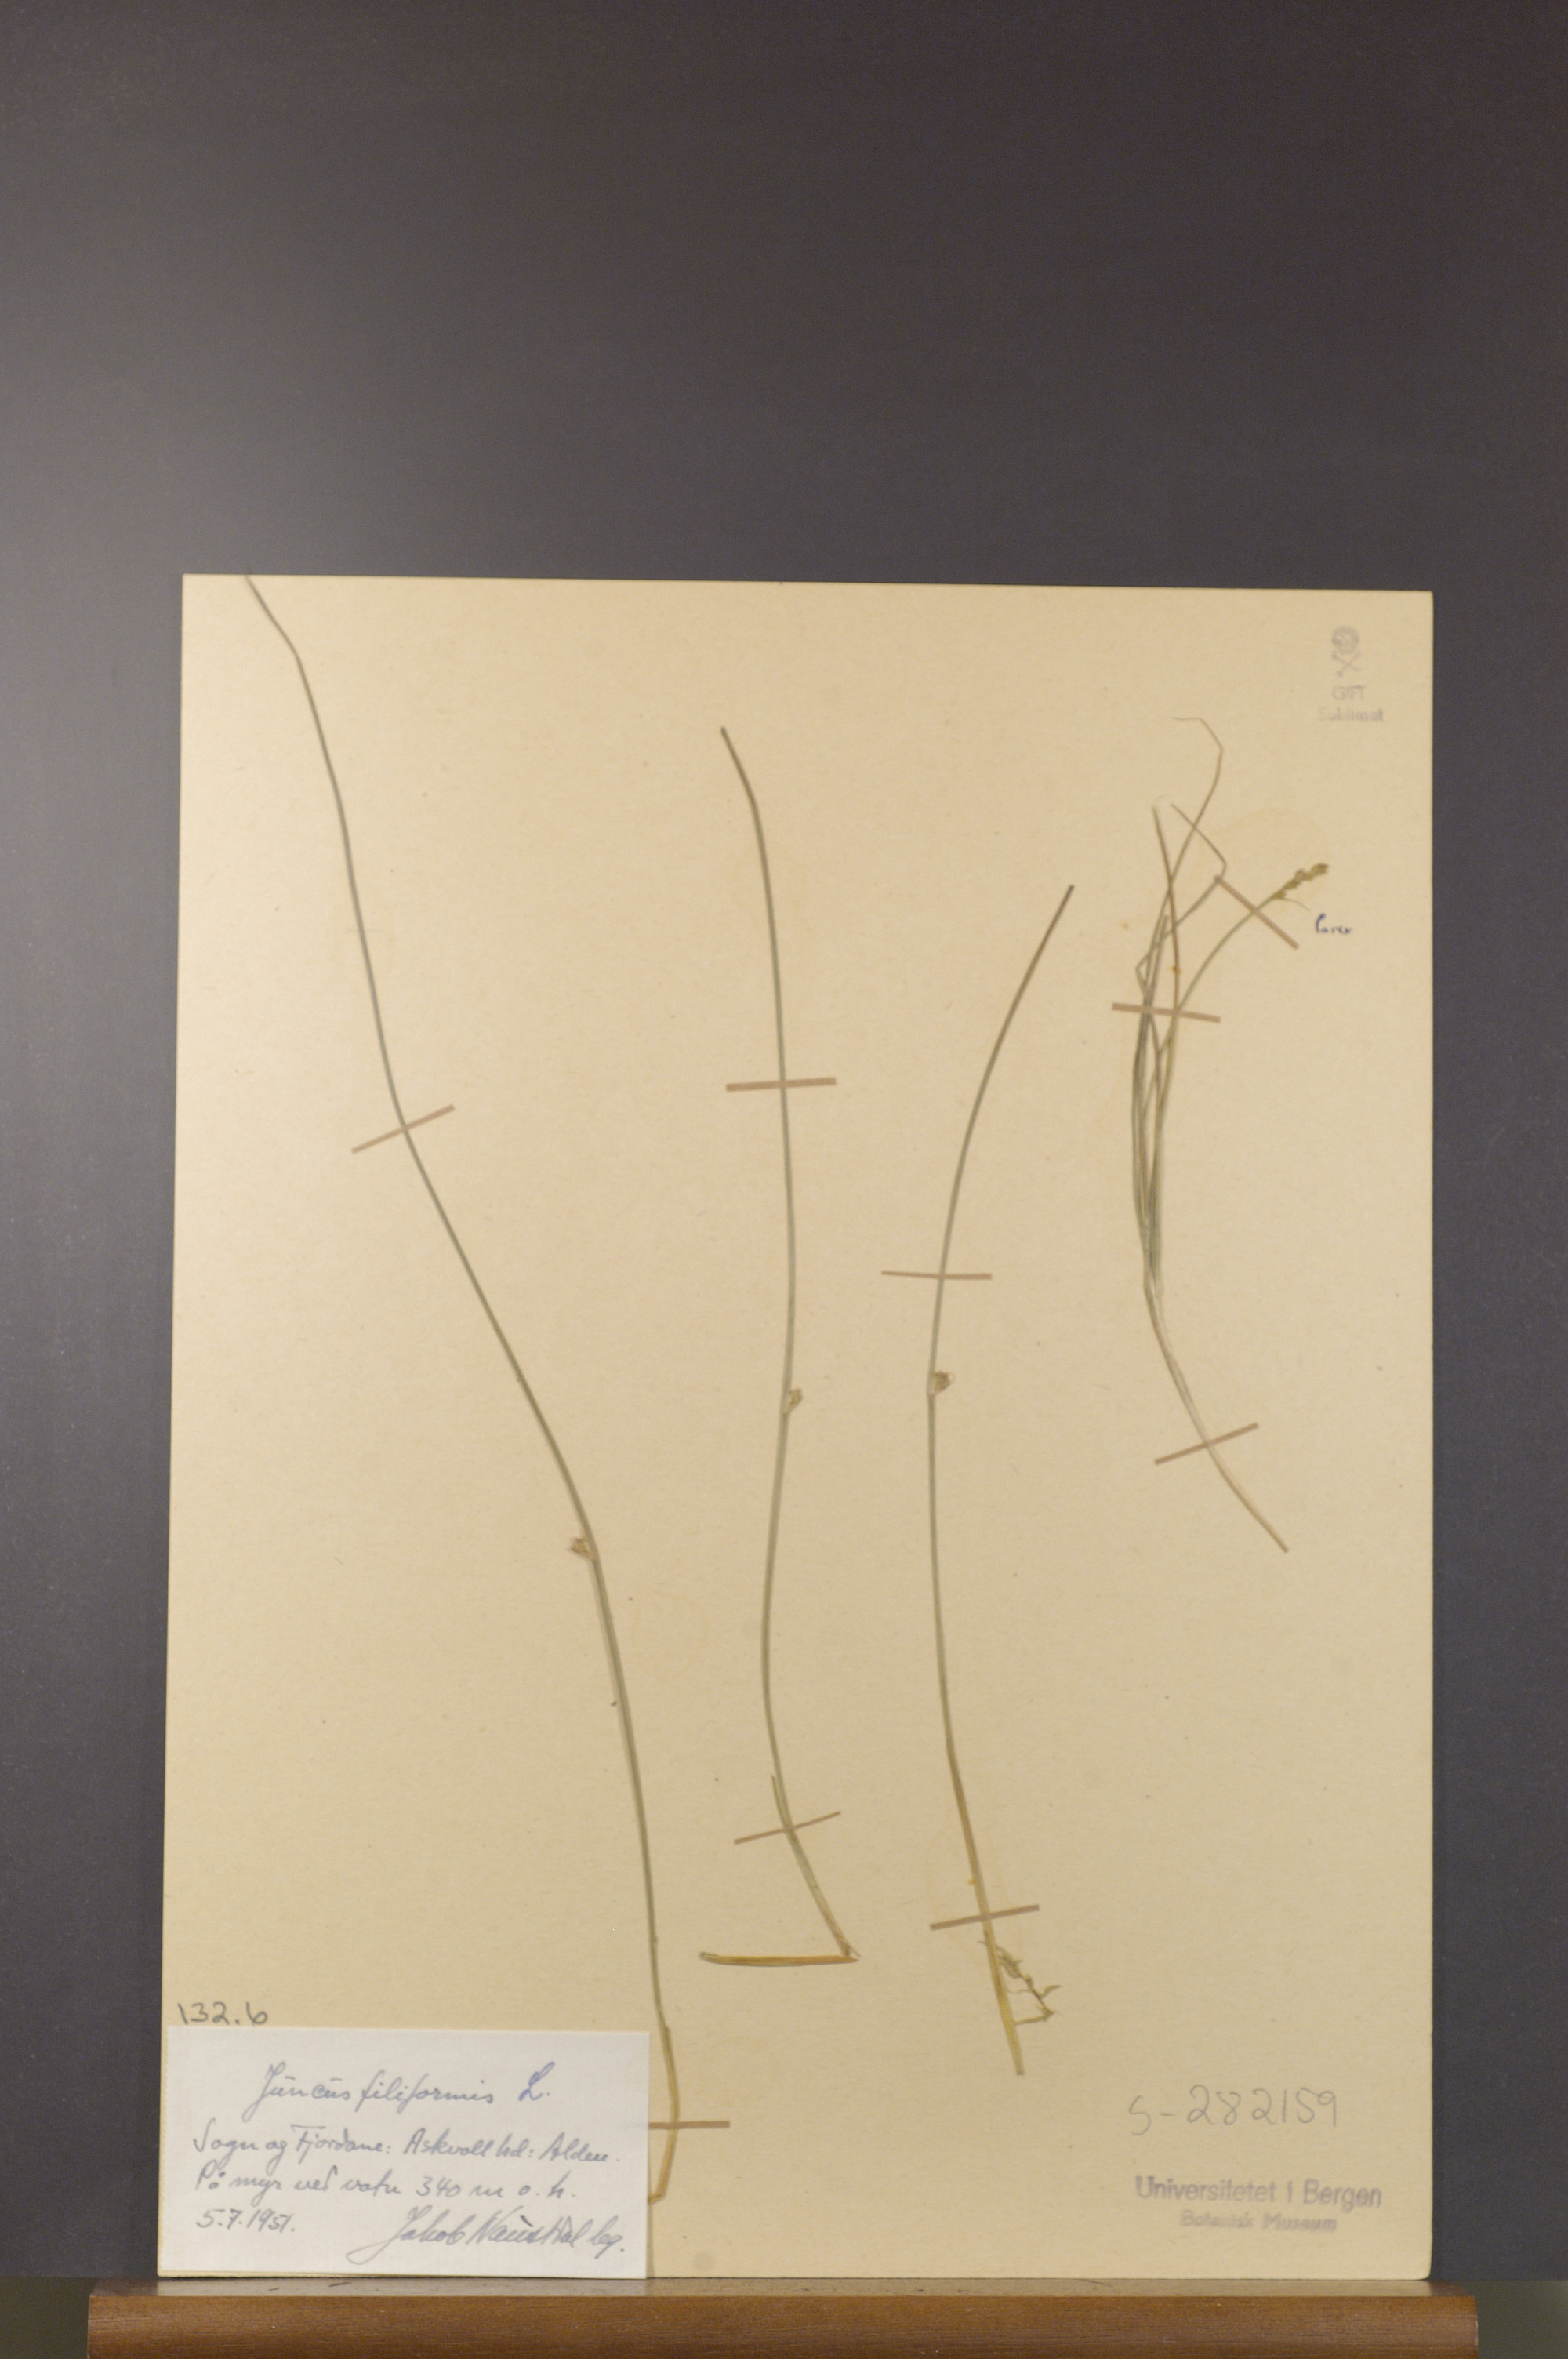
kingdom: Plantae
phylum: Tracheophyta
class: Liliopsida
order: Poales
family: Juncaceae
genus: Juncus
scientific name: Juncus filiformis
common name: Thread rush
